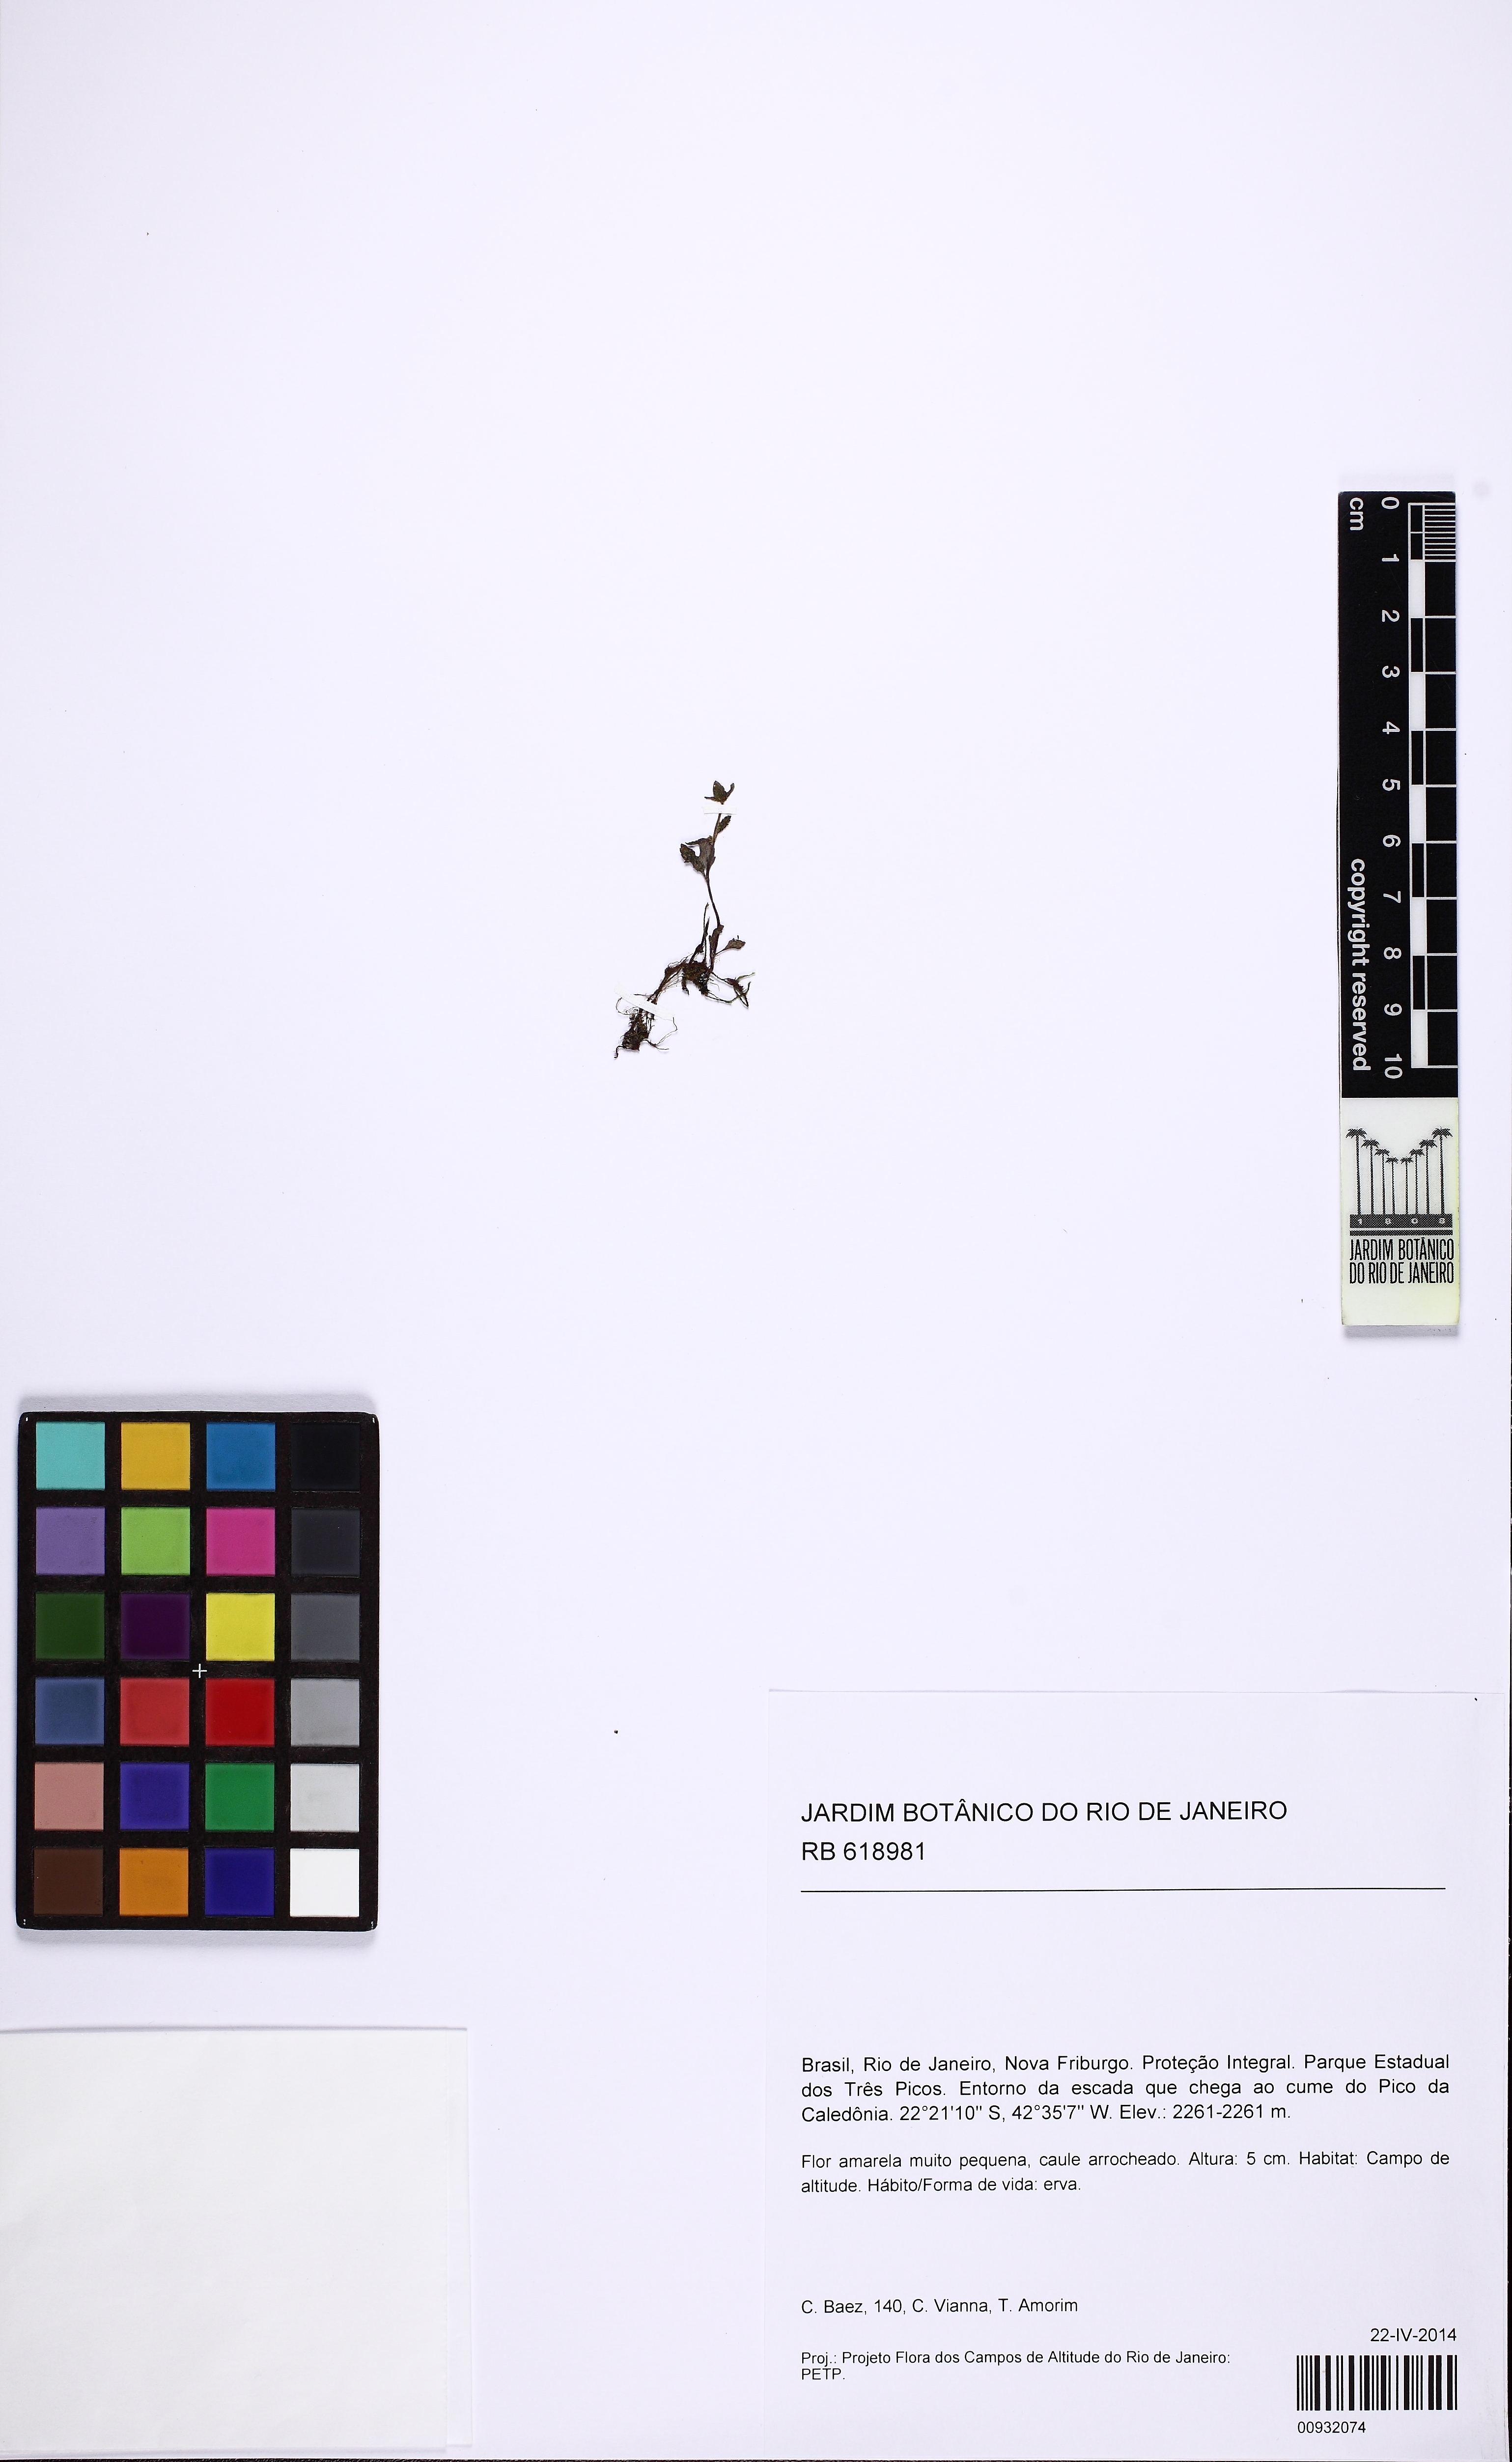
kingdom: Plantae
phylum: Tracheophyta
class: Magnoliopsida
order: Lamiales
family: Plantaginaceae
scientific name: Plantaginaceae
